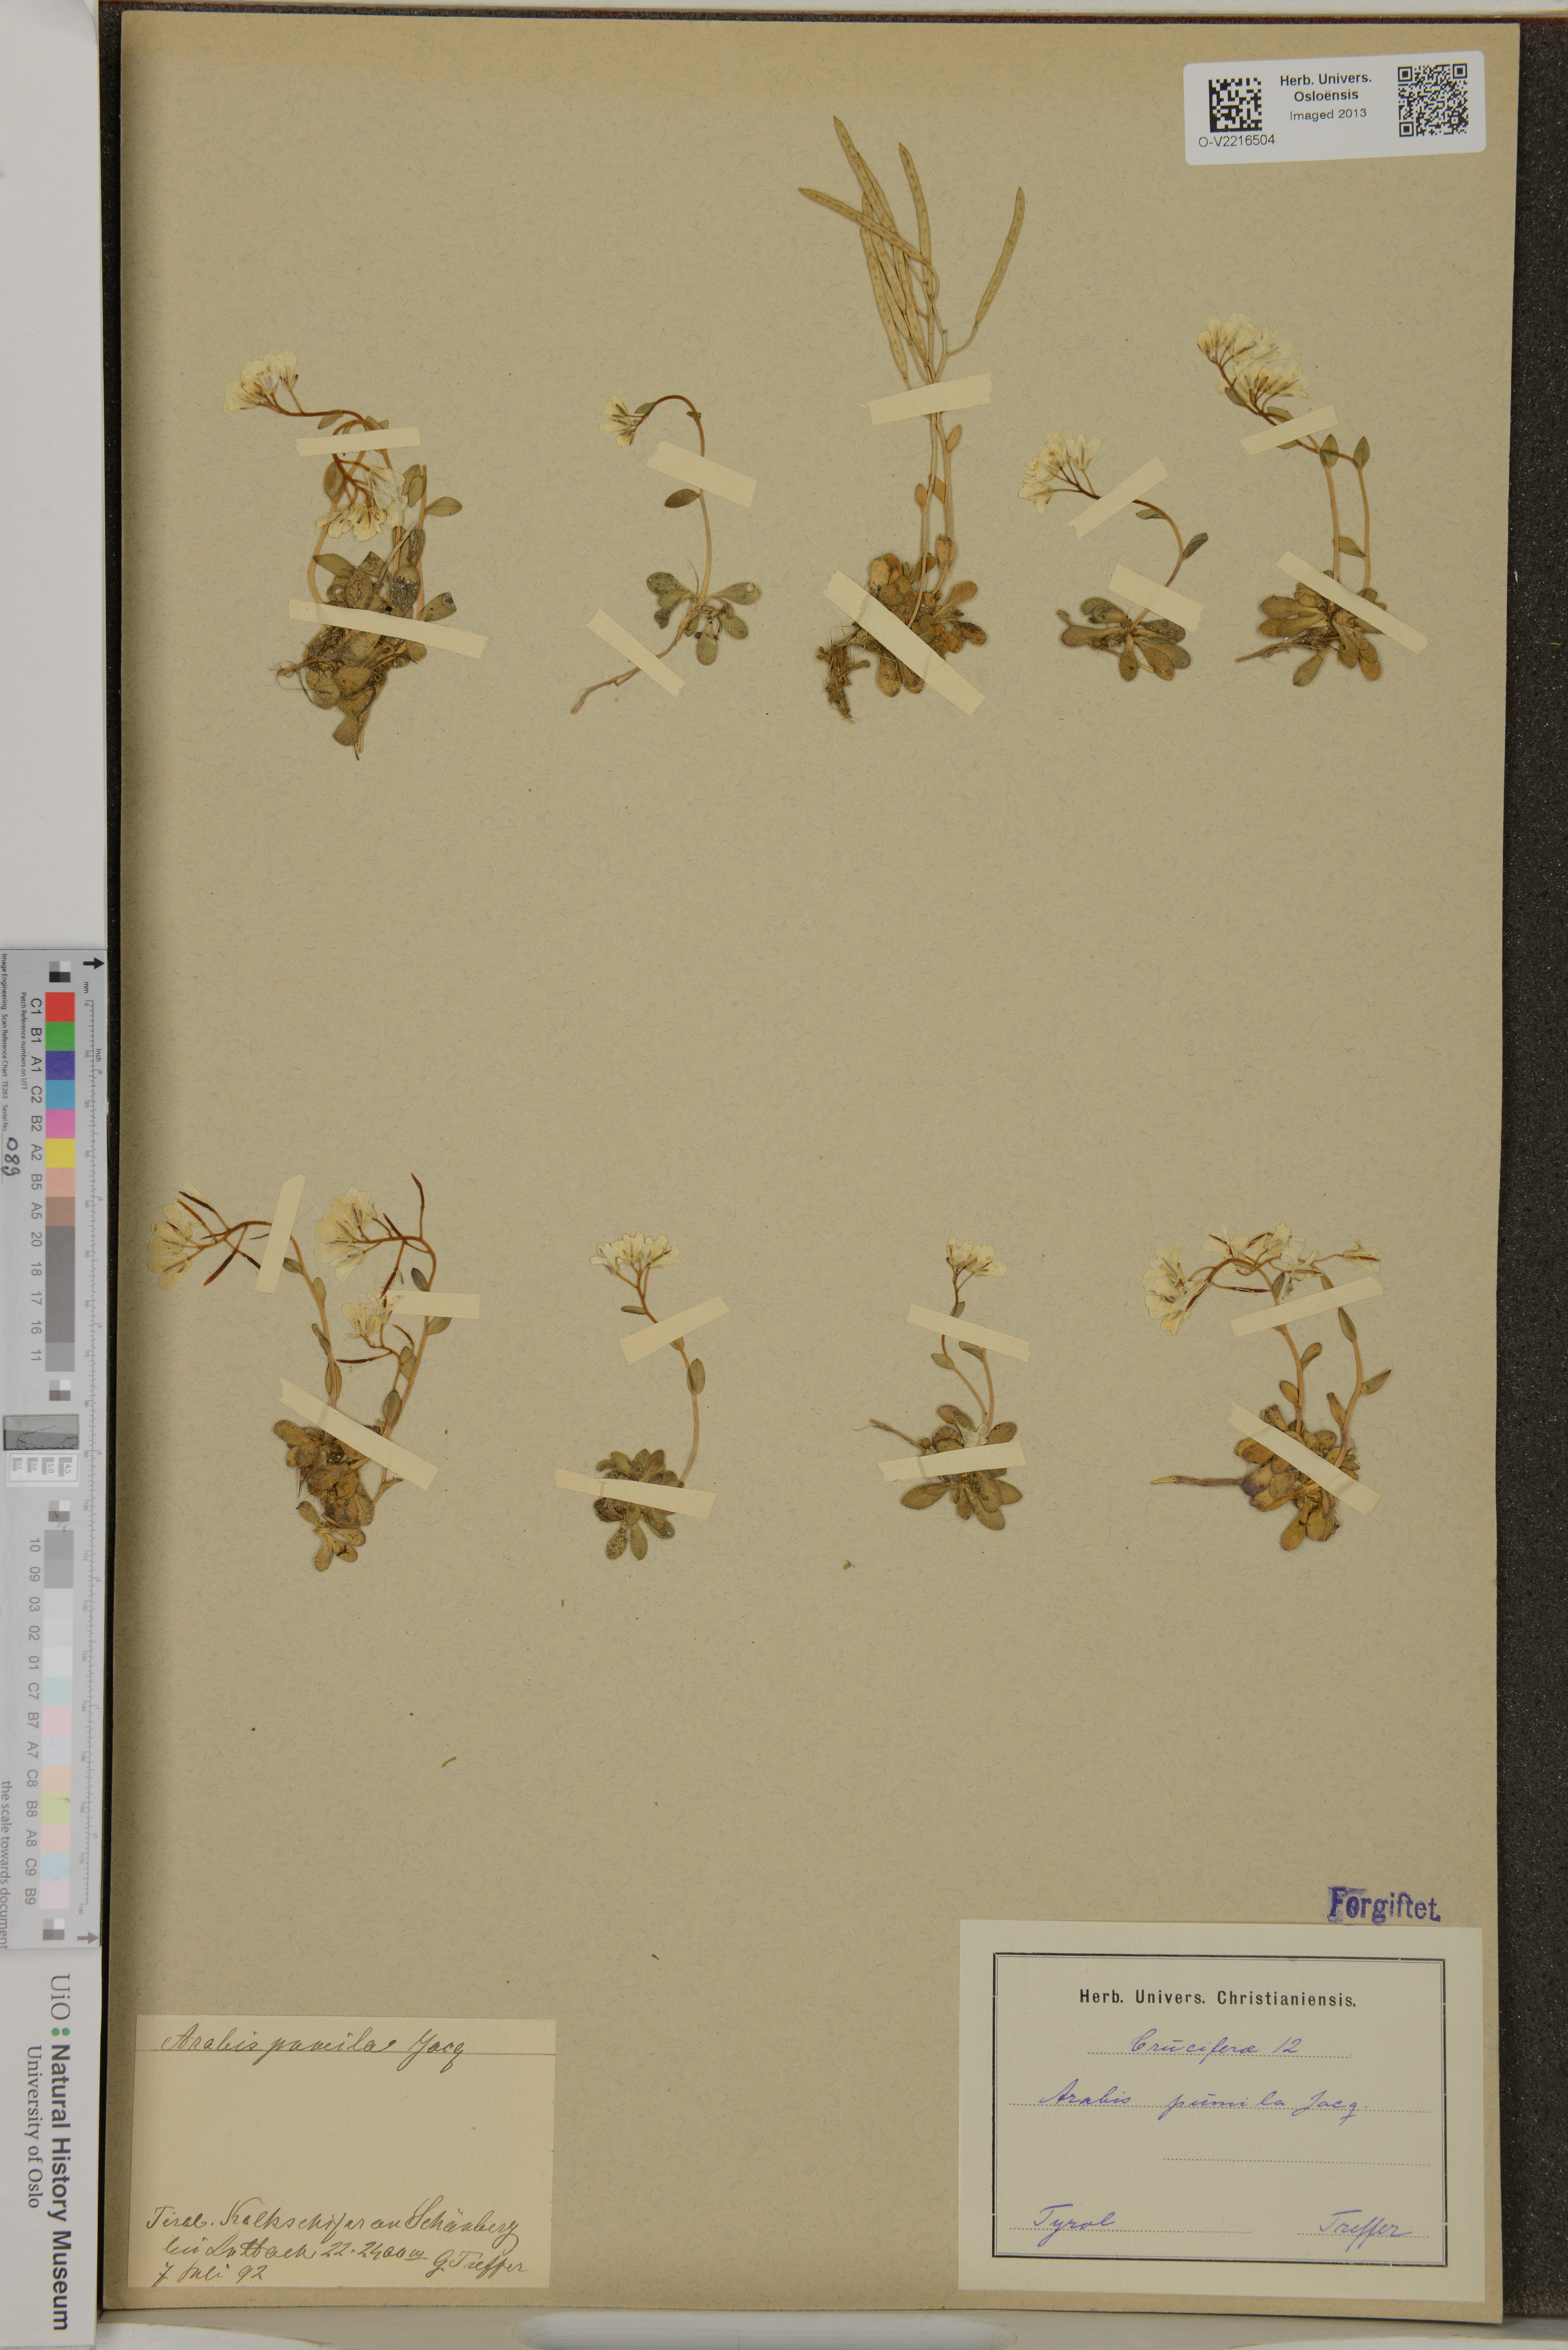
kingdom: Plantae
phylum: Tracheophyta
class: Magnoliopsida
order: Brassicales
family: Brassicaceae
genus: Arabis
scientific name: Arabis pumila
